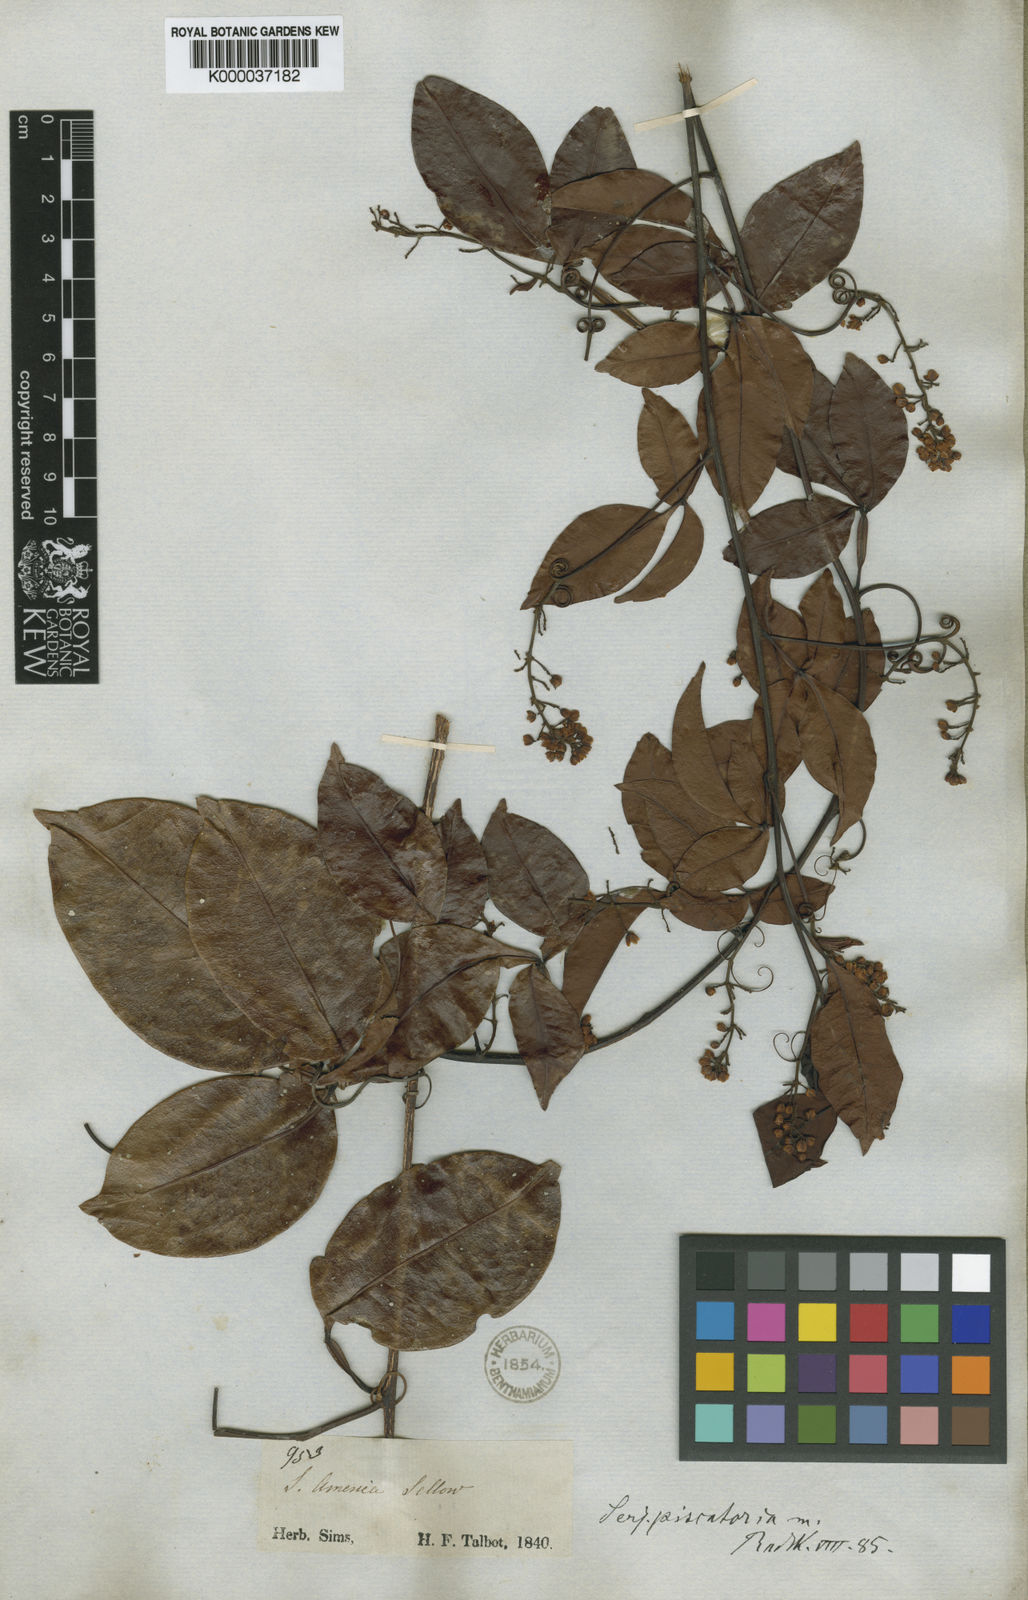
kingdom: Plantae
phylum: Tracheophyta
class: Magnoliopsida
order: Sapindales
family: Sapindaceae
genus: Serjania
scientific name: Serjania piscatoria
